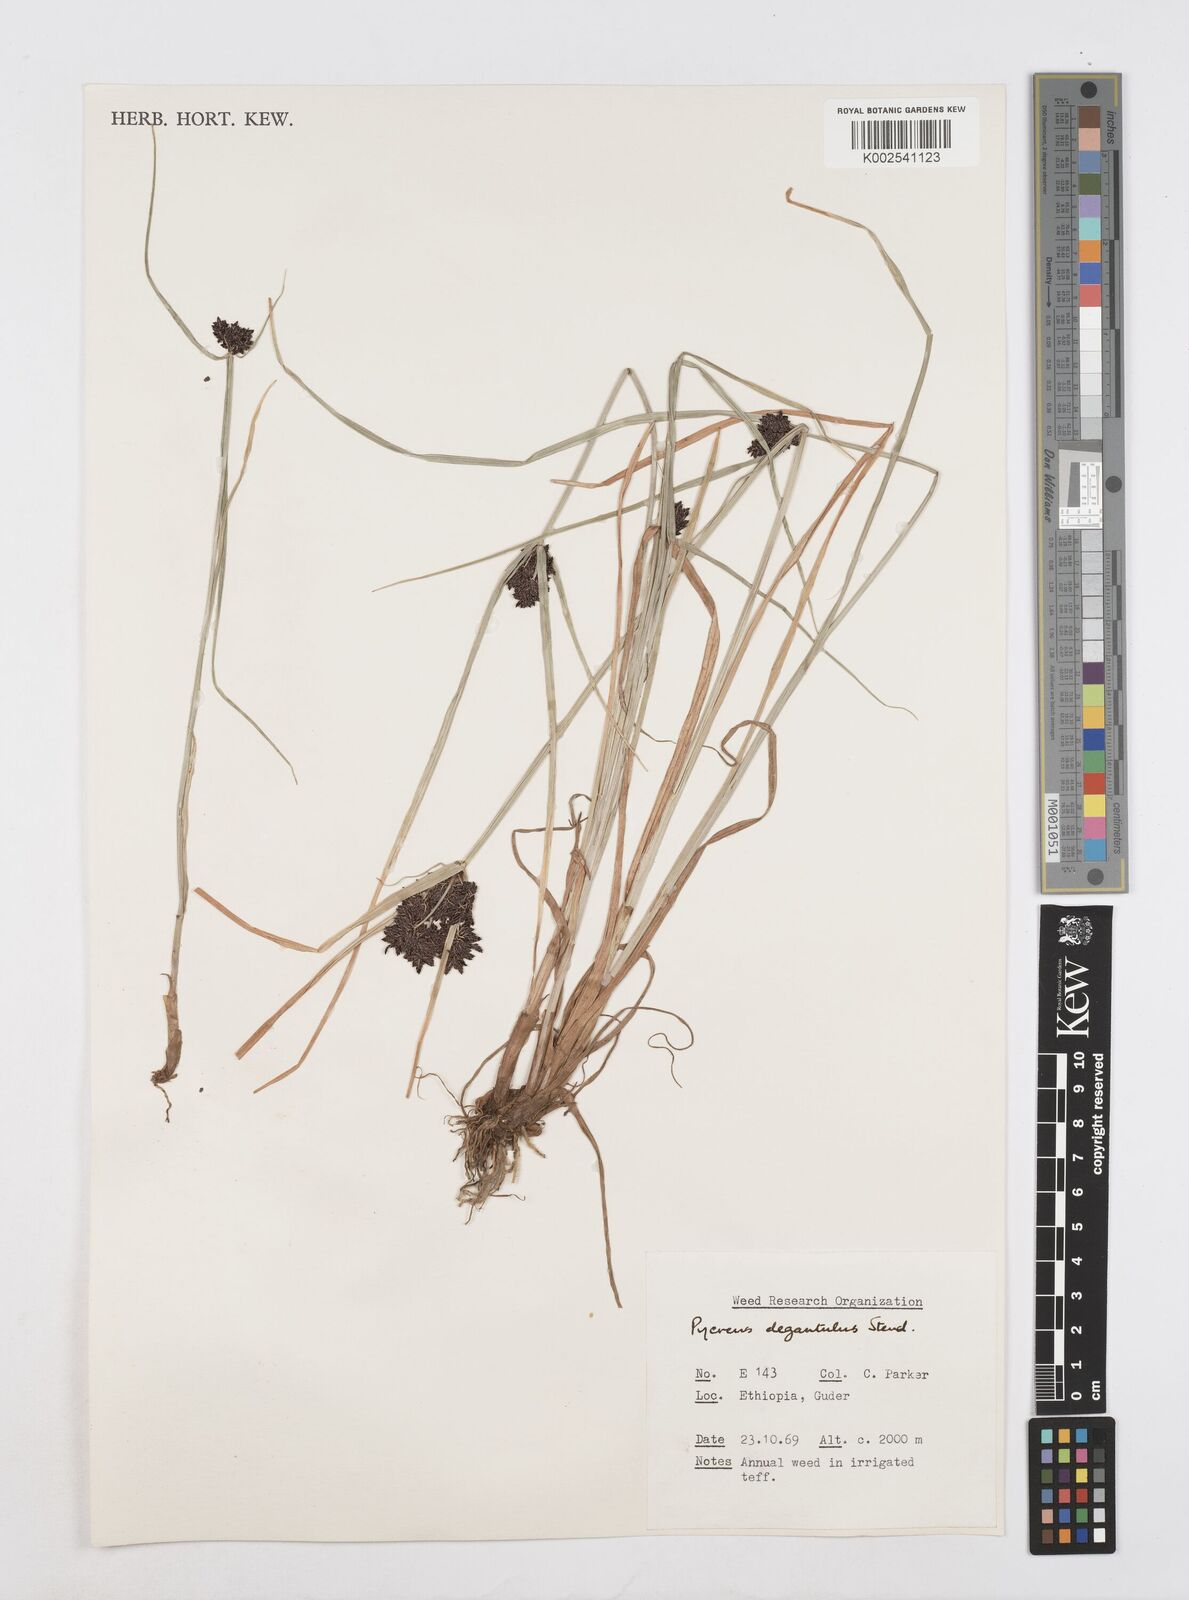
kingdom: Plantae
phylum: Tracheophyta
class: Liliopsida
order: Poales
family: Cyperaceae
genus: Cyperus
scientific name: Cyperus elegantulus
